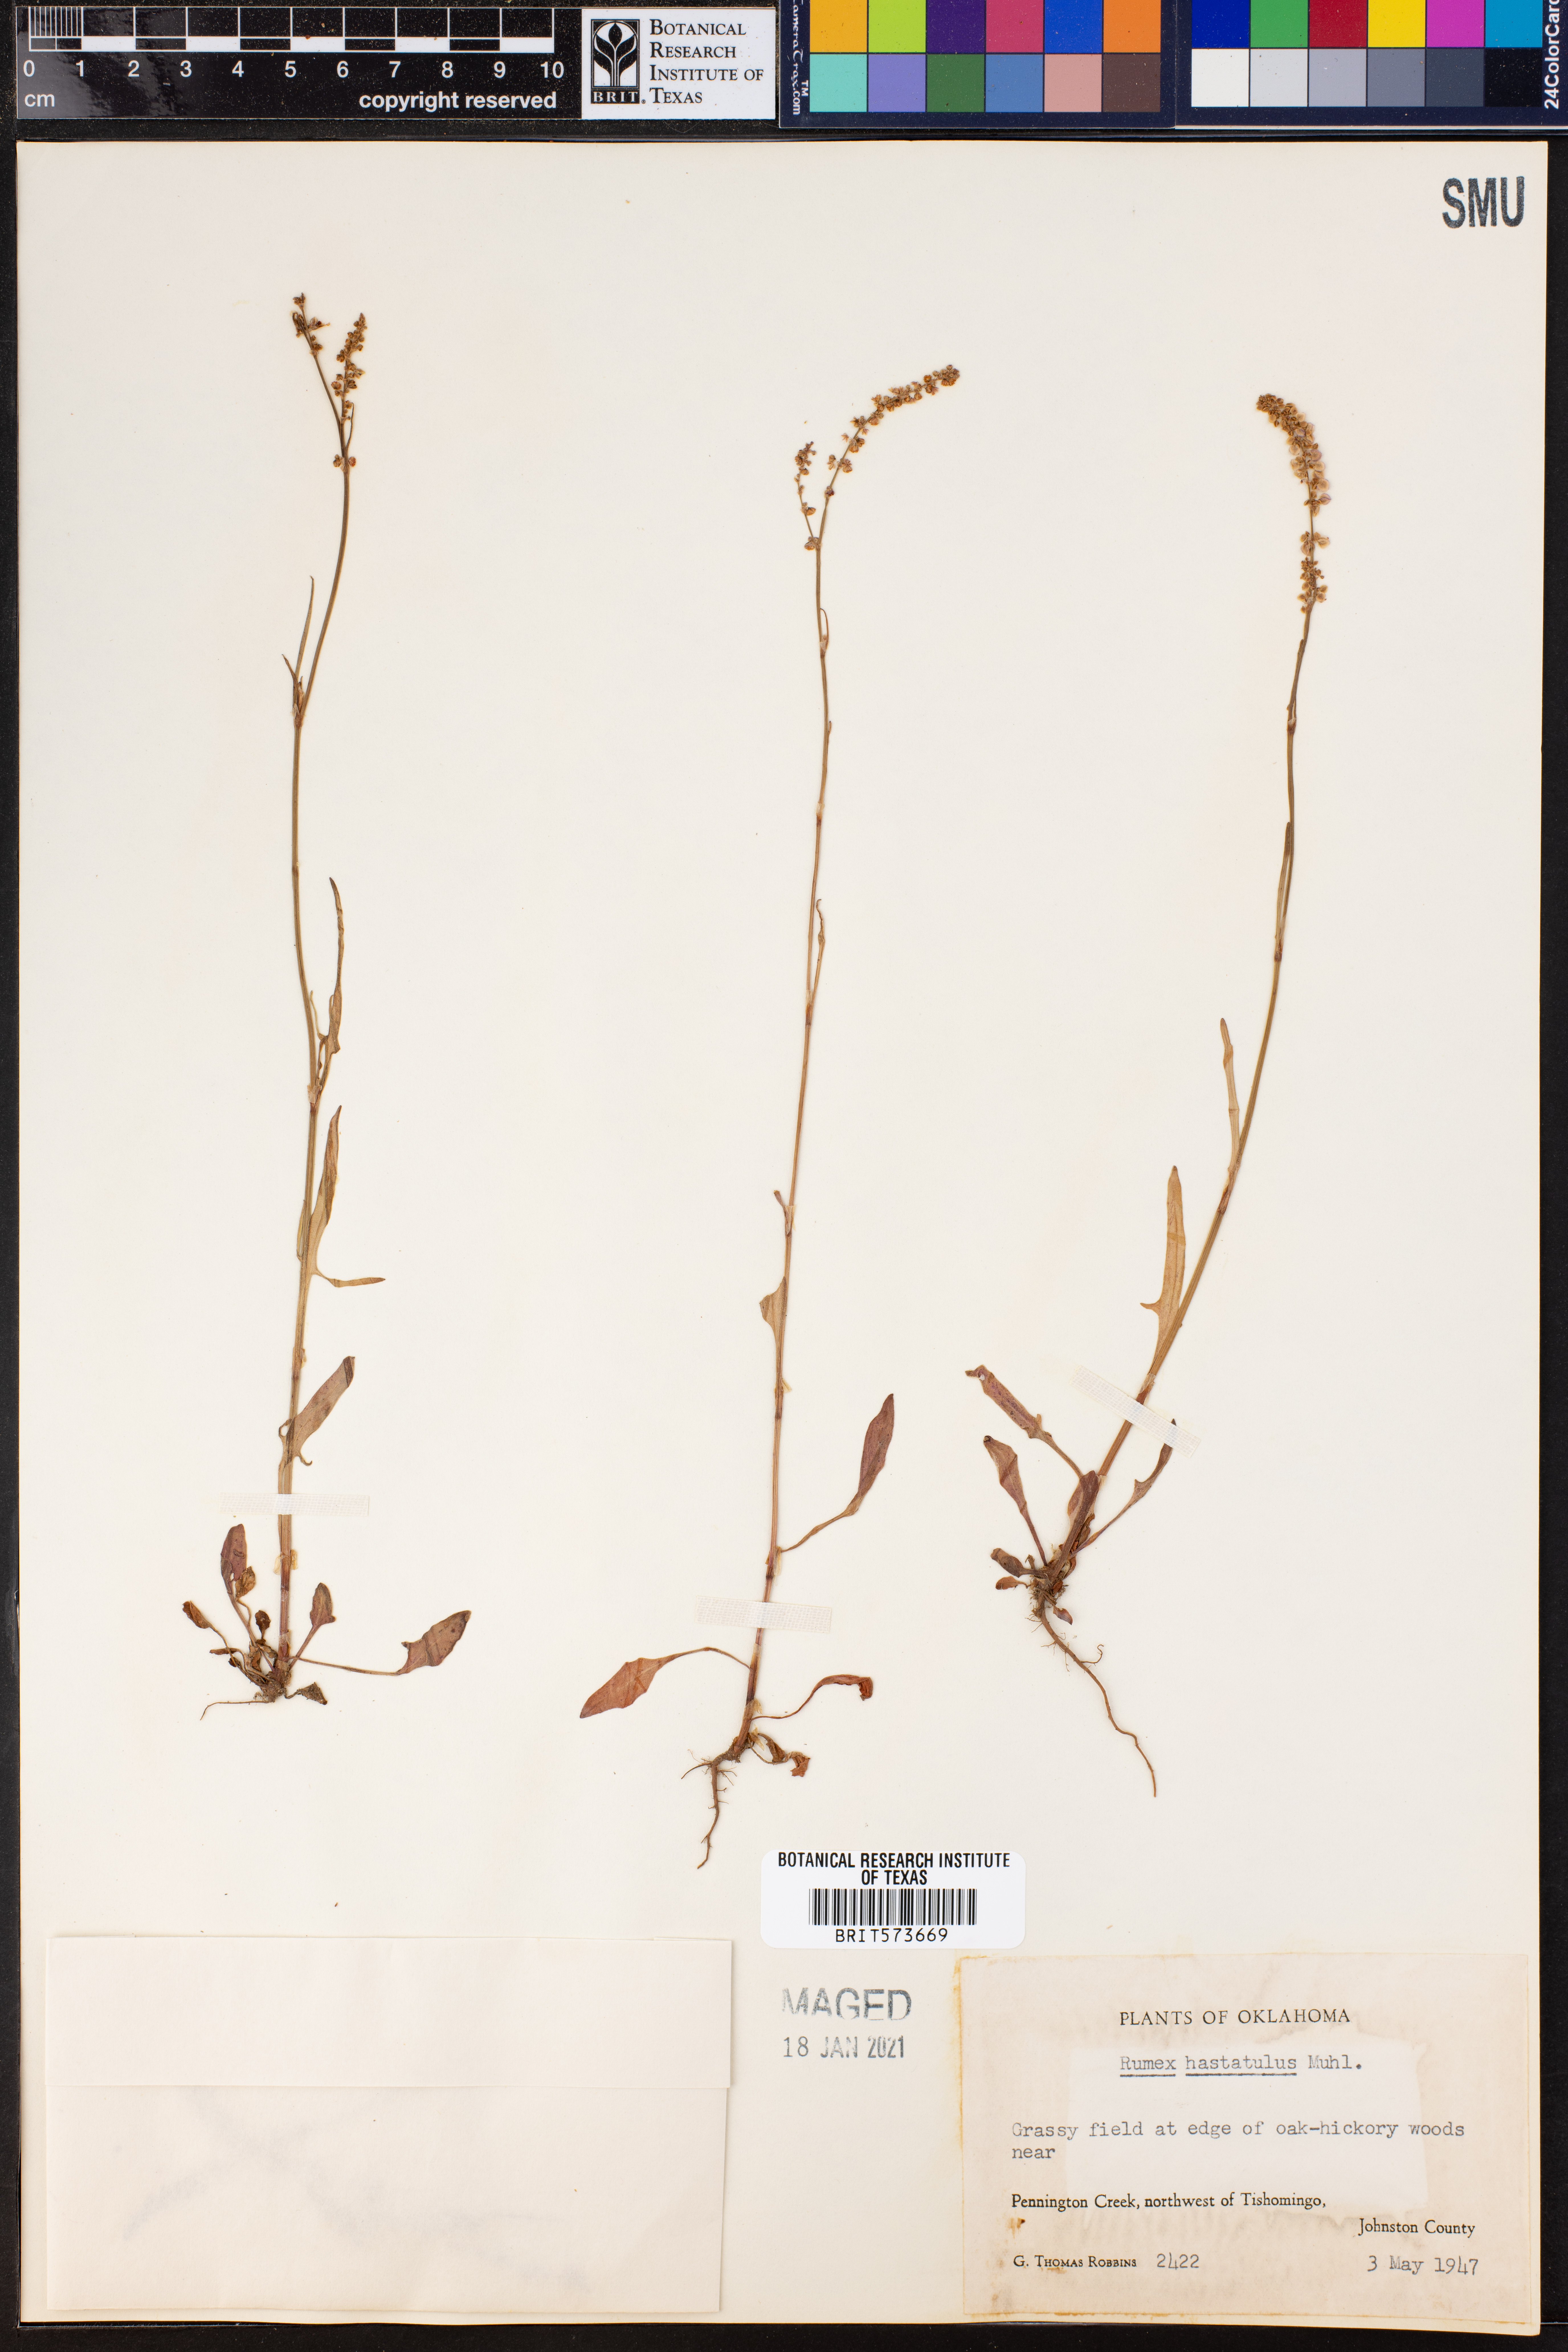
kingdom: Plantae
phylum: Tracheophyta
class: Magnoliopsida
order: Caryophyllales
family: Polygonaceae
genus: Rumex
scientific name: Rumex hastatulus
